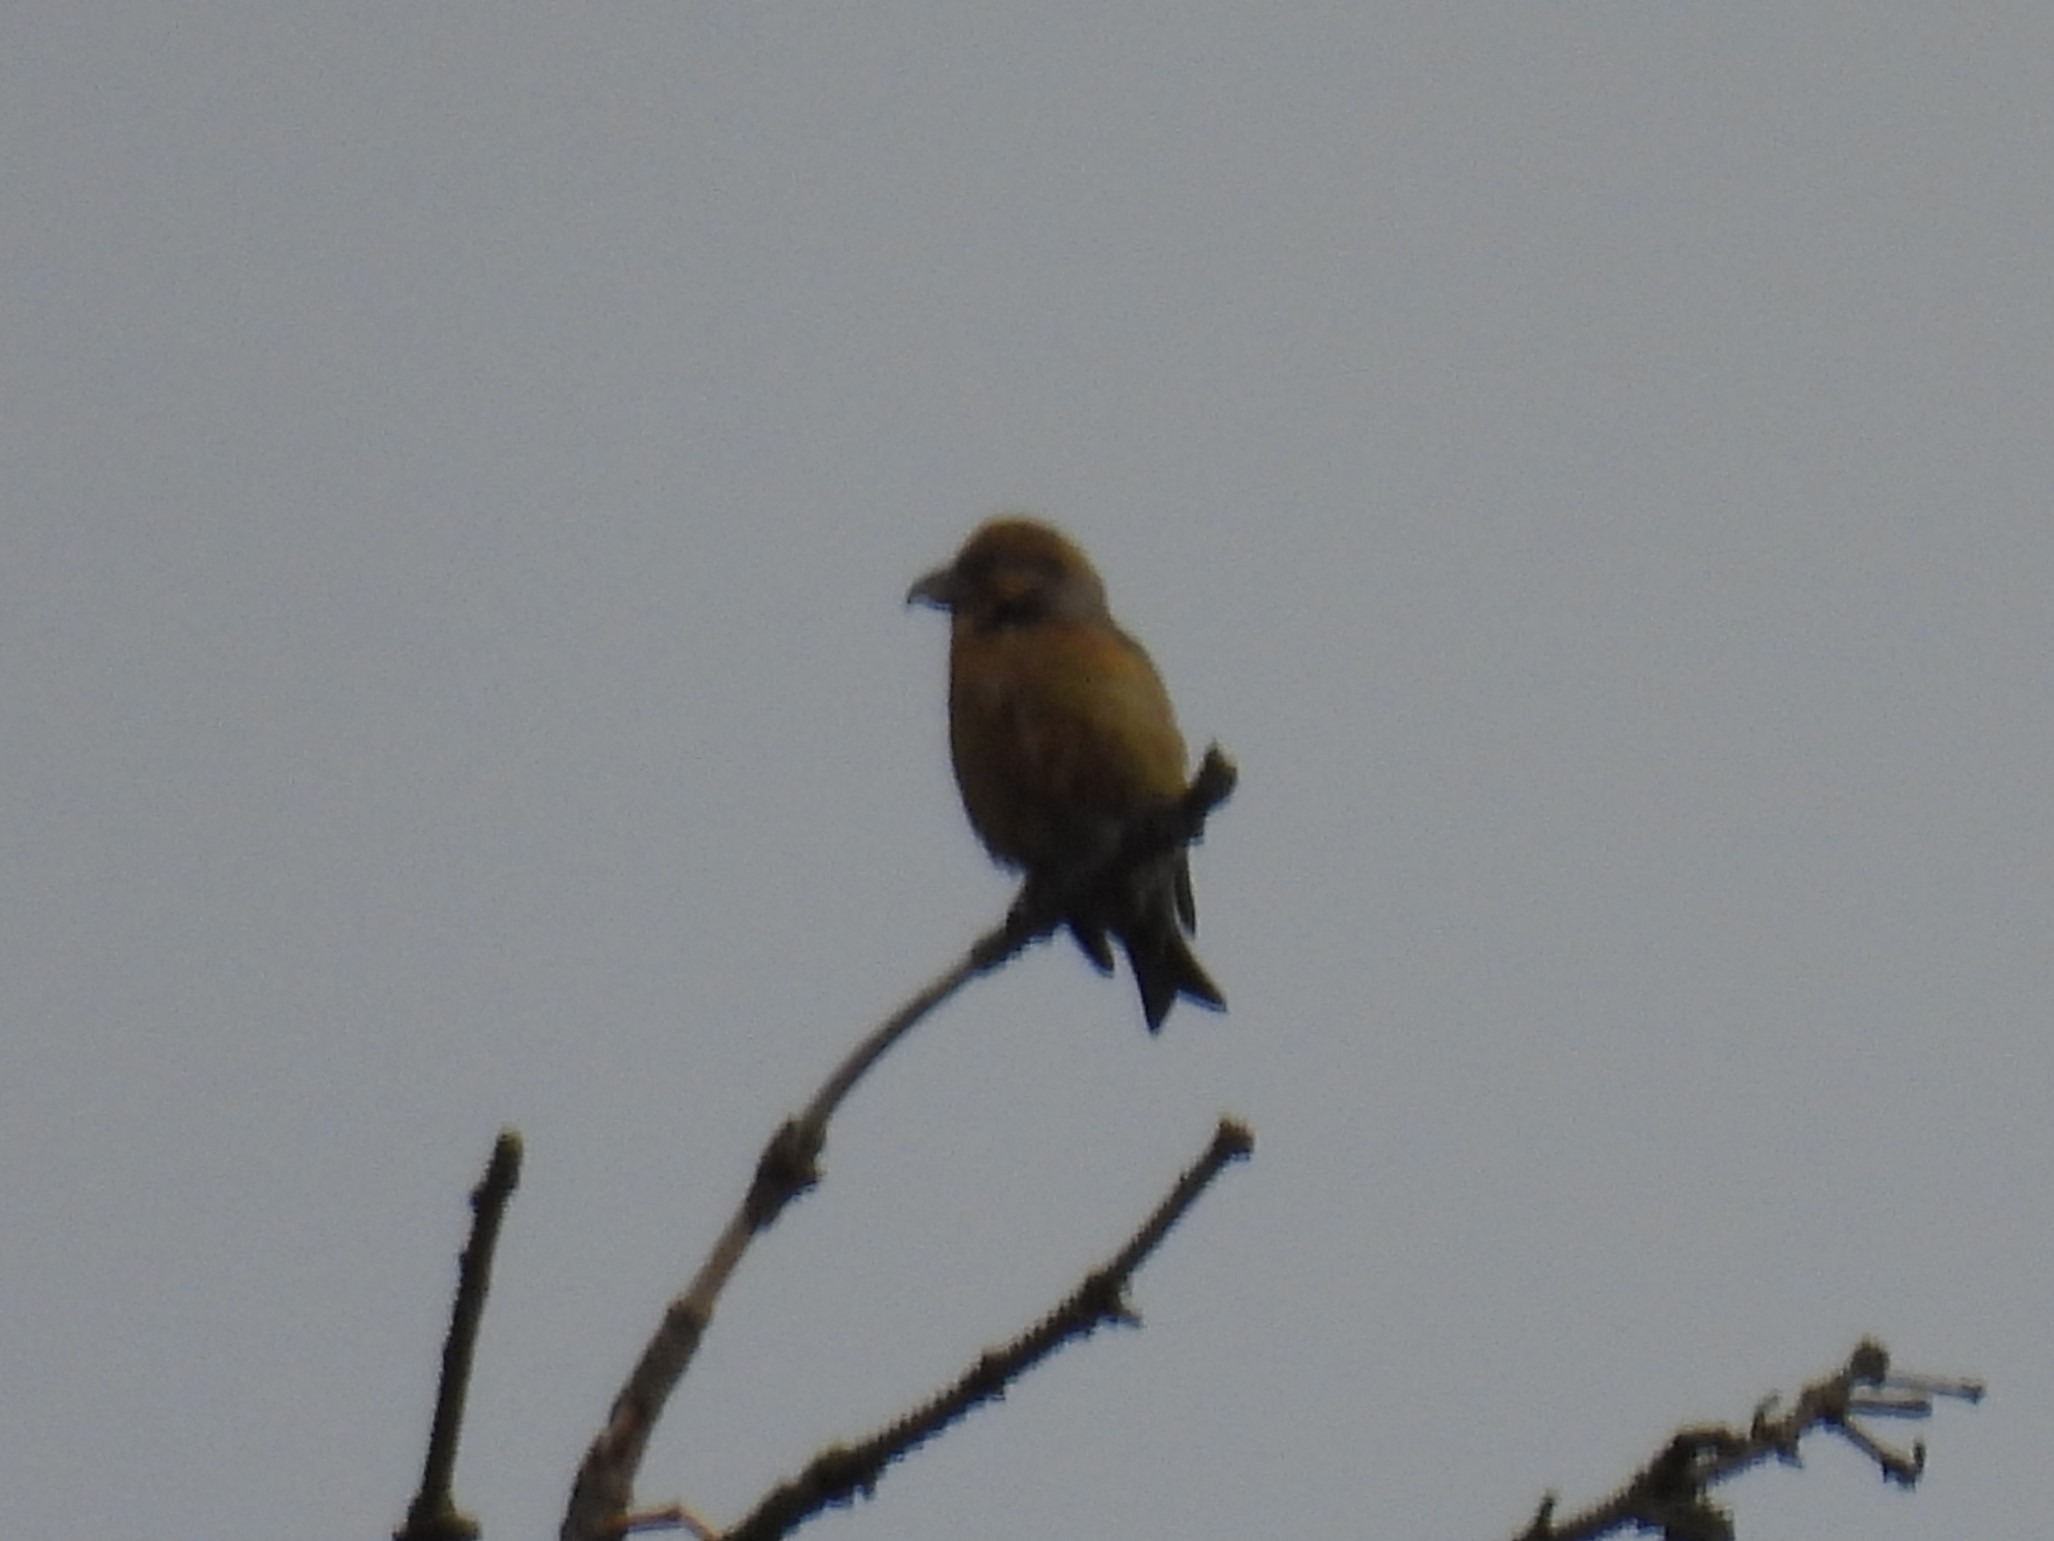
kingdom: Animalia
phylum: Chordata
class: Aves
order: Passeriformes
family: Fringillidae
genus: Loxia
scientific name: Loxia curvirostra
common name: Lille korsnæb
